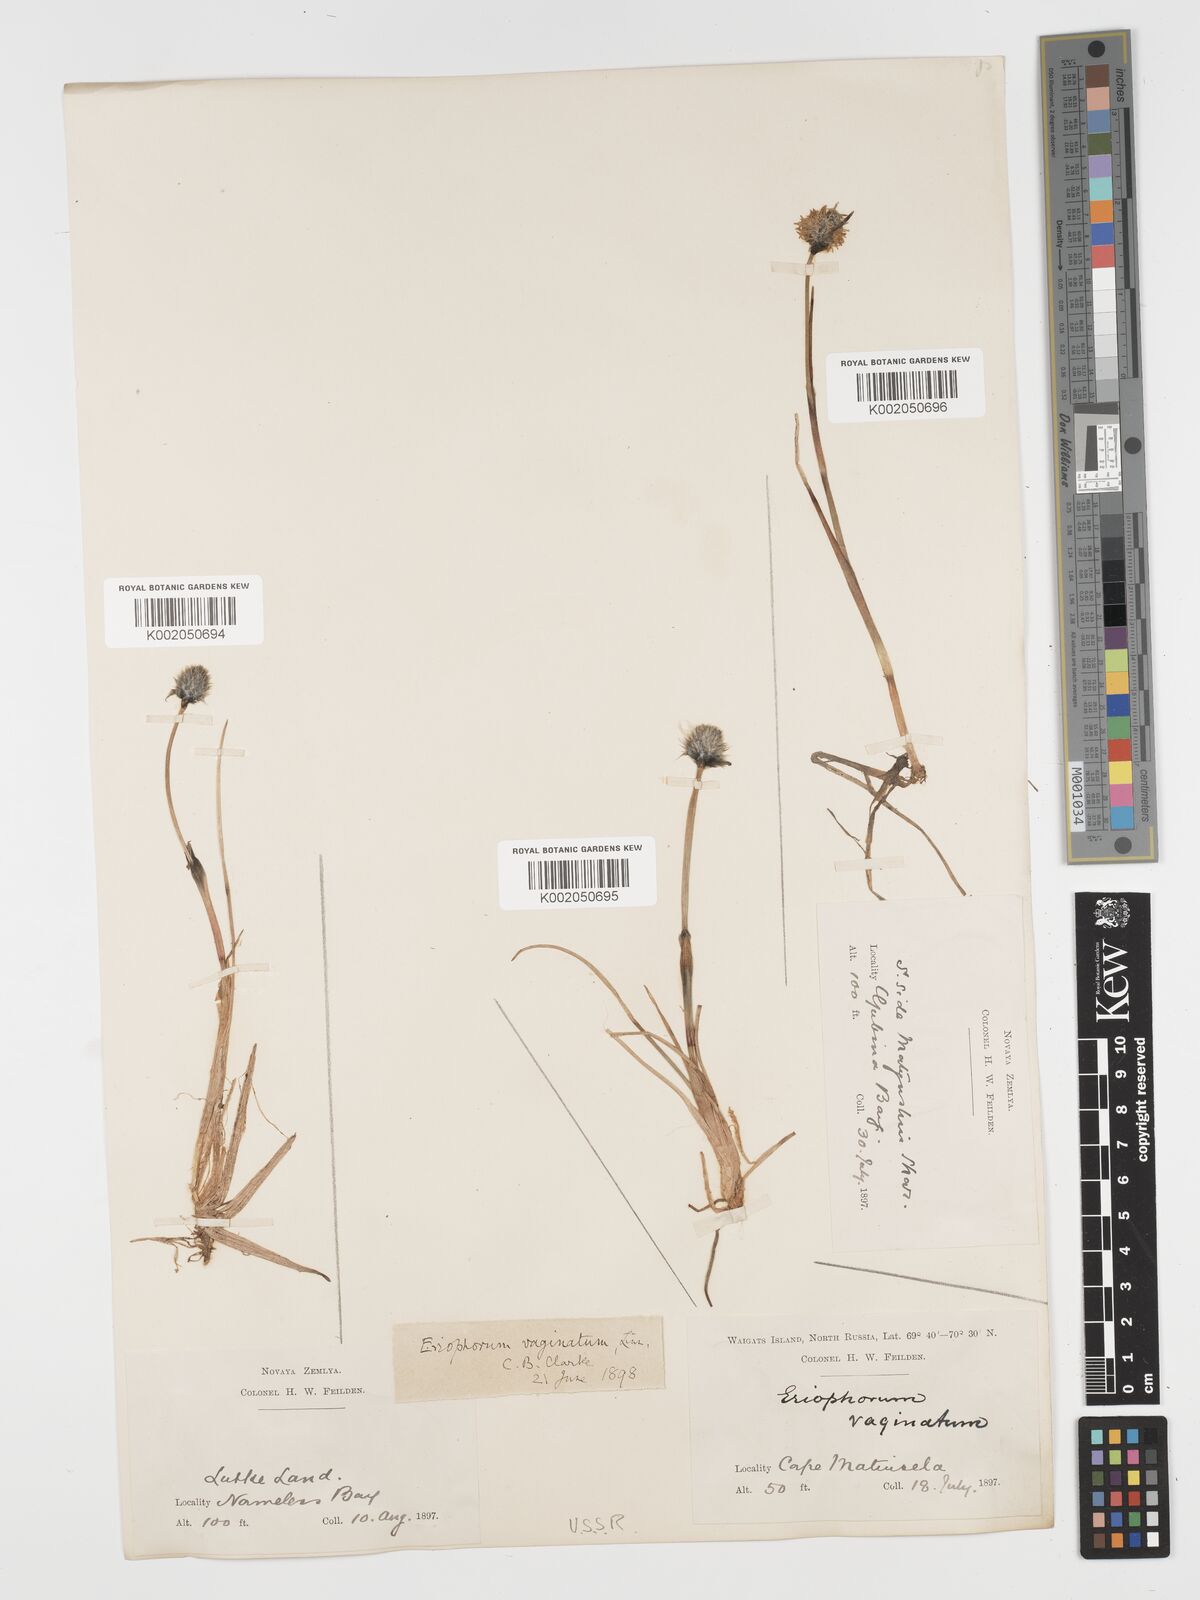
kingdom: Plantae
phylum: Tracheophyta
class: Liliopsida
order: Poales
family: Cyperaceae
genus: Eriophorum
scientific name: Eriophorum vaginatum
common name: Hare's-tail cottongrass
